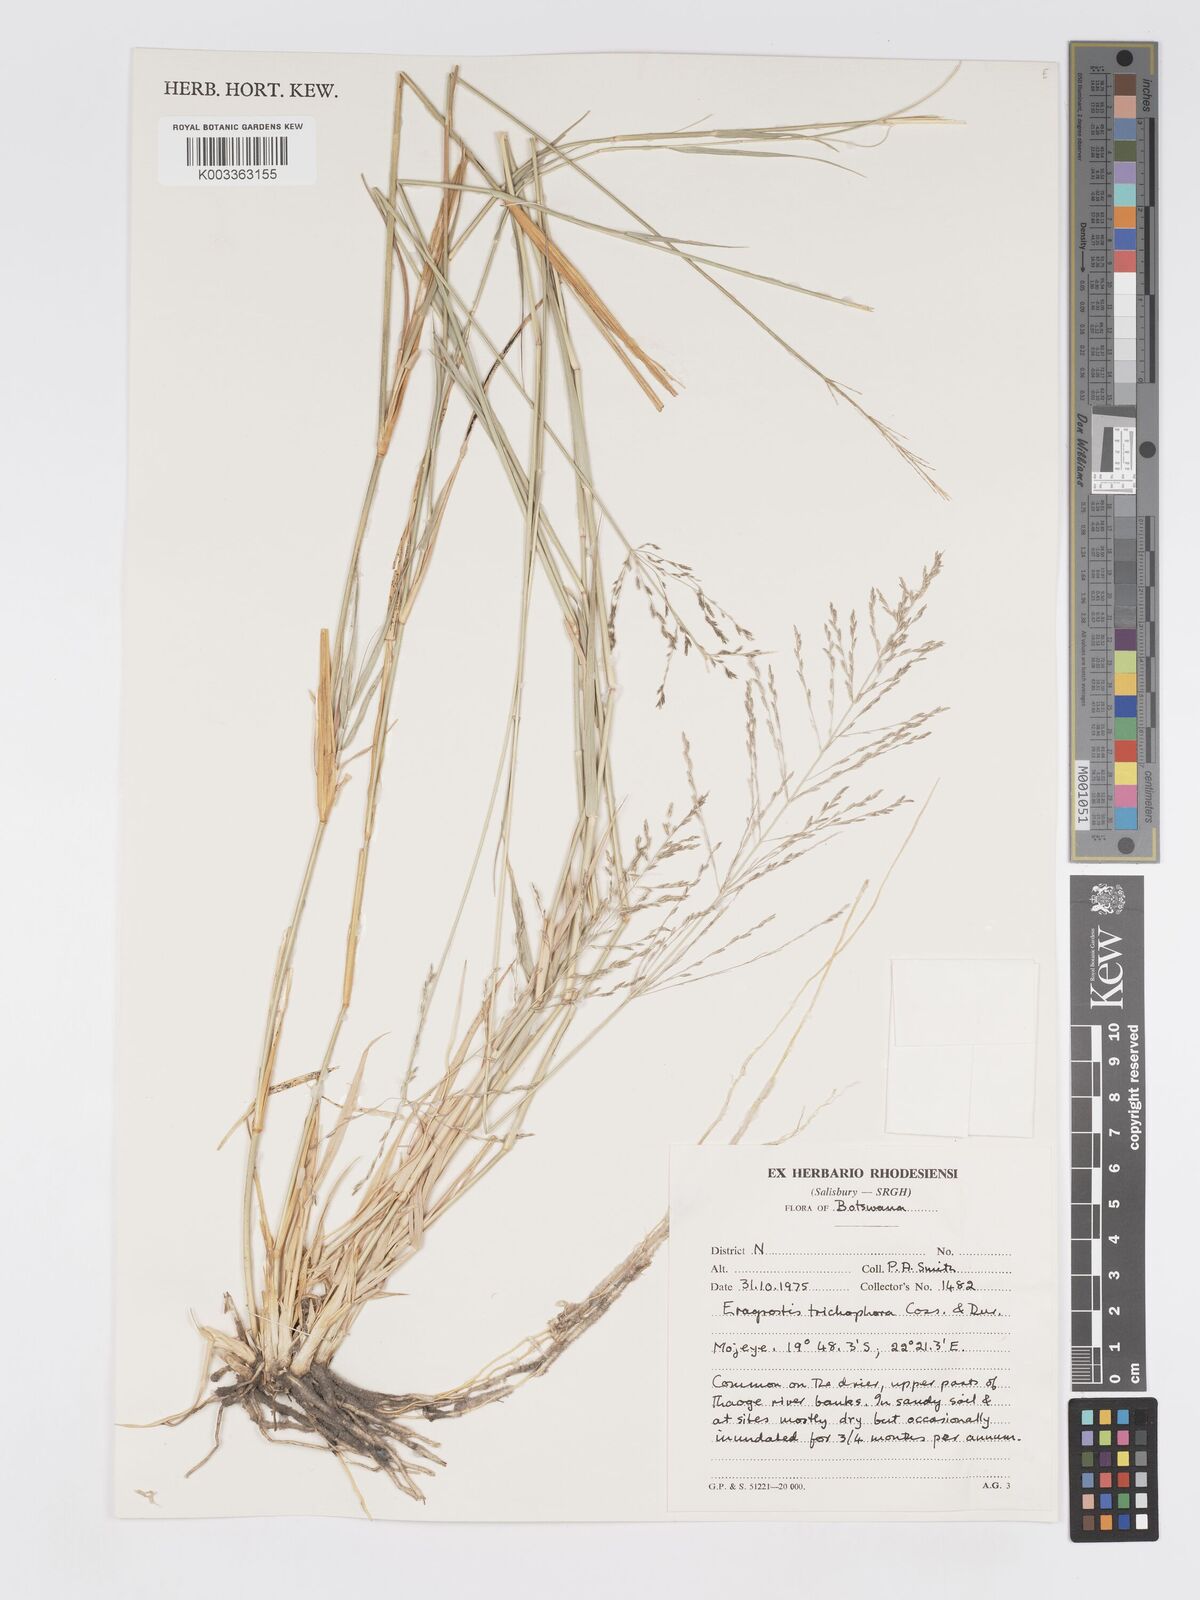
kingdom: Plantae
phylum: Tracheophyta
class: Liliopsida
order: Poales
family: Poaceae
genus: Eragrostis
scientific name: Eragrostis cylindriflora
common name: Cylinderflower lovegrass
